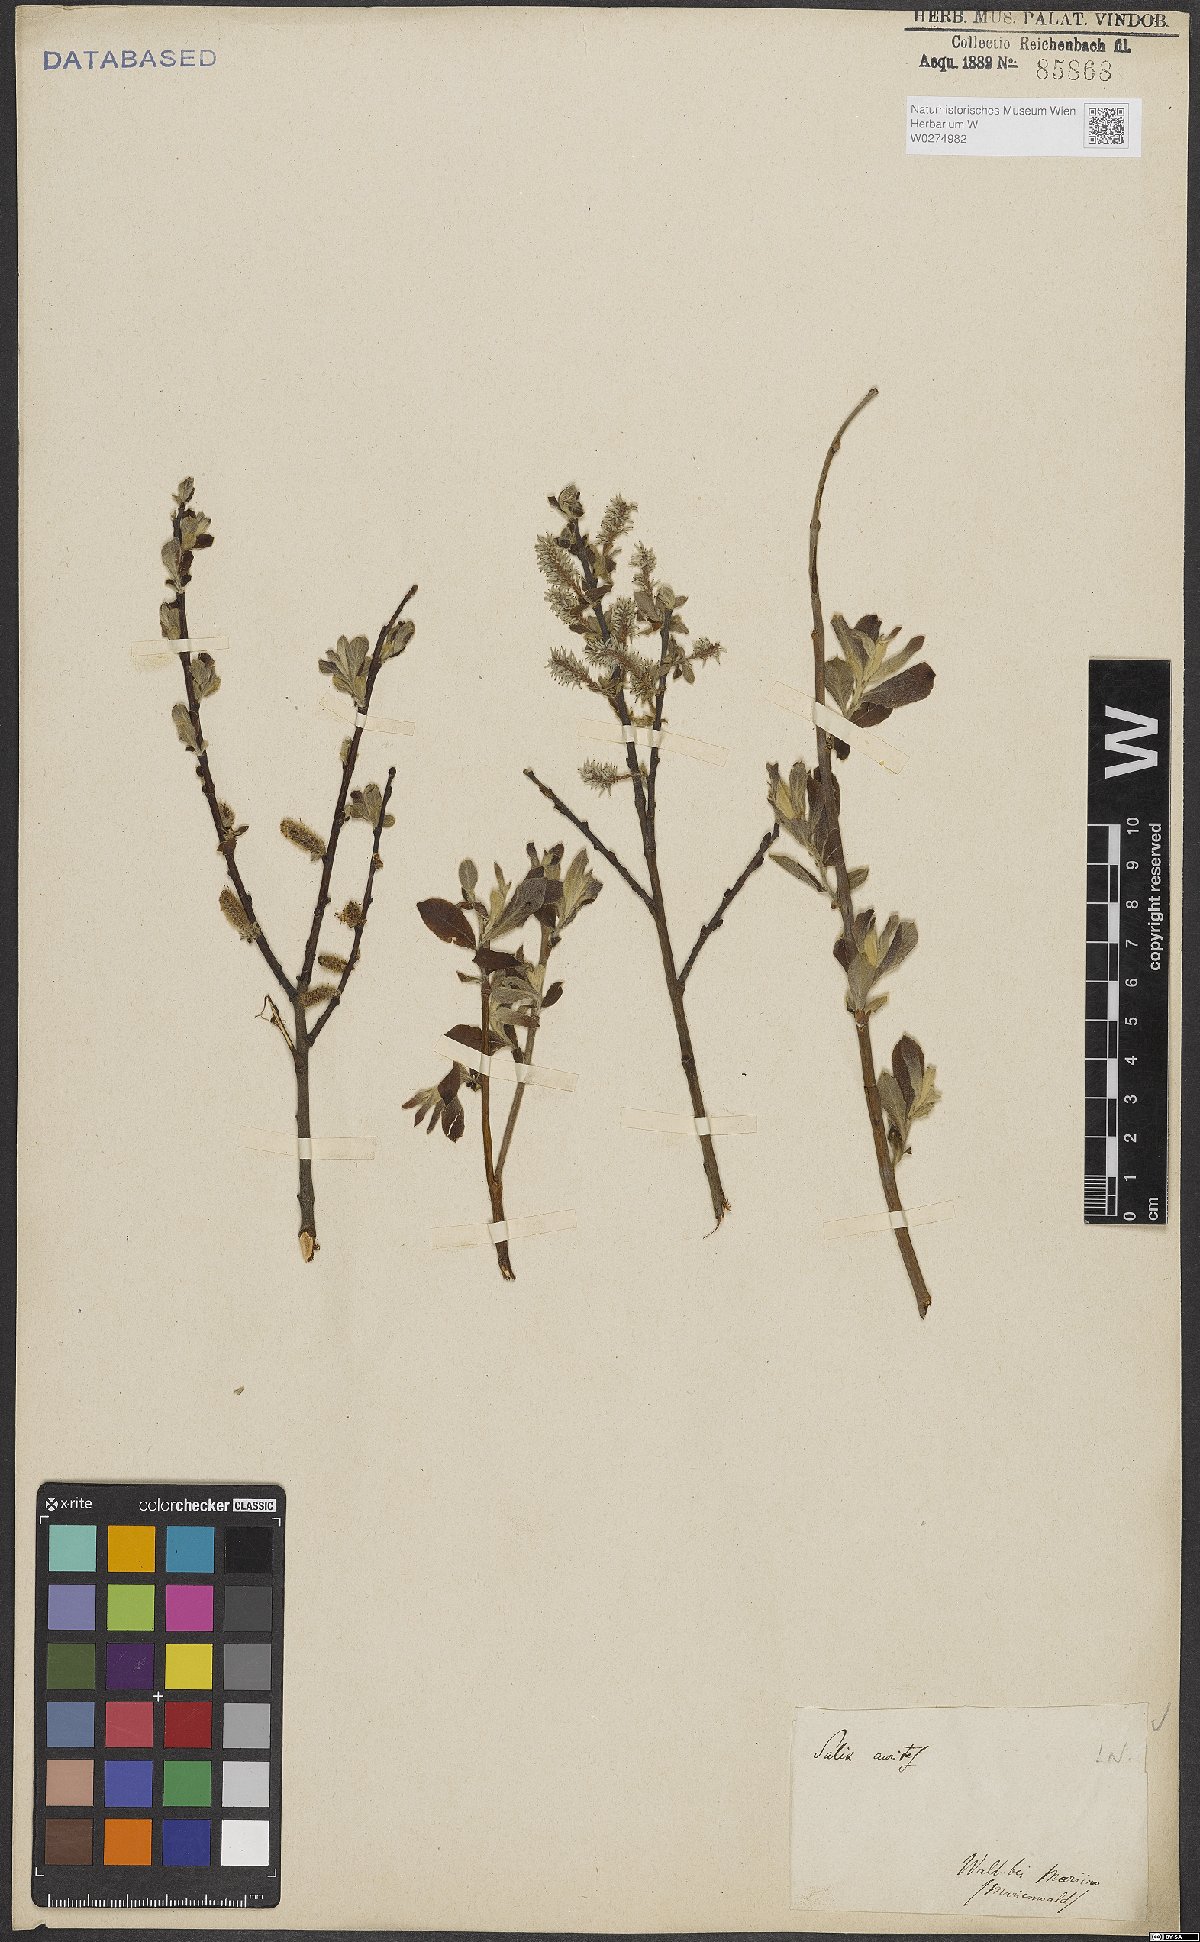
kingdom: Plantae
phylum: Tracheophyta
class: Magnoliopsida
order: Malpighiales
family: Salicaceae
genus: Salix
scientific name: Salix aurita
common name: Eared willow
